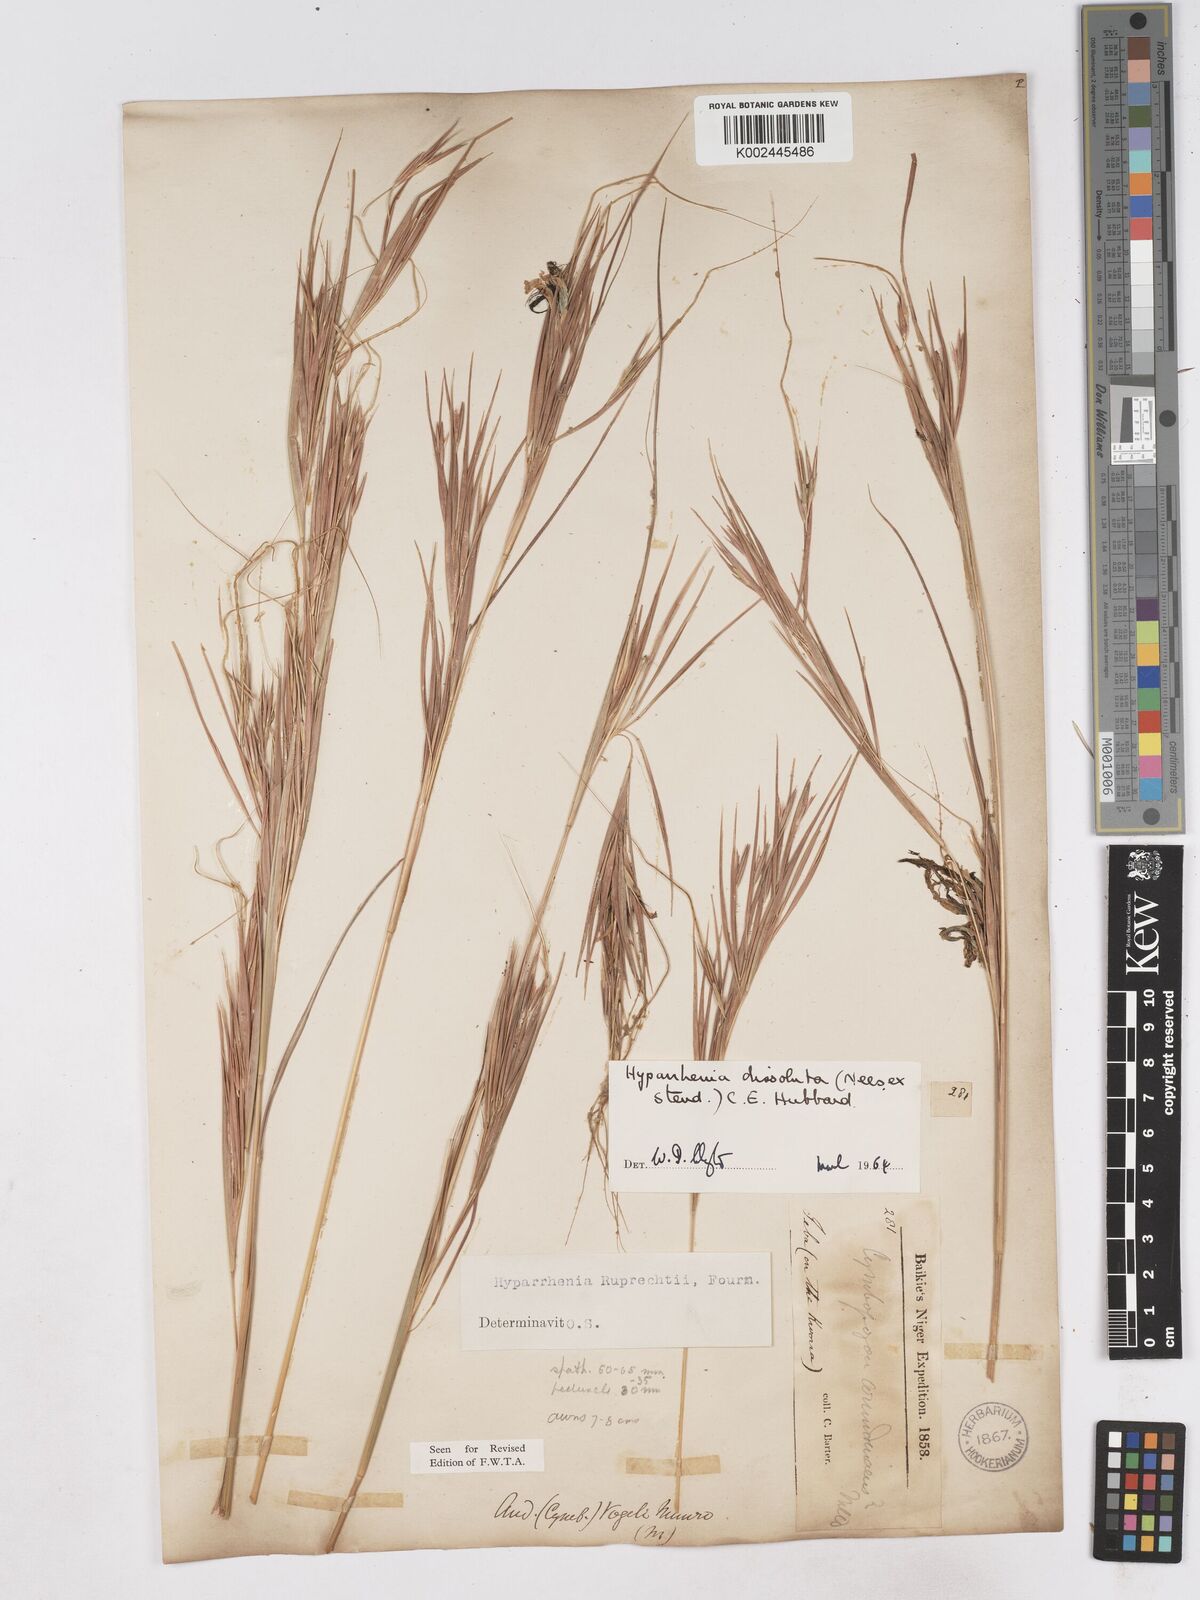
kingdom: Plantae
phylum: Tracheophyta
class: Liliopsida
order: Poales
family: Poaceae
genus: Hyperthelia
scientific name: Hyperthelia dissoluta
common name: Yellow thatching grass
